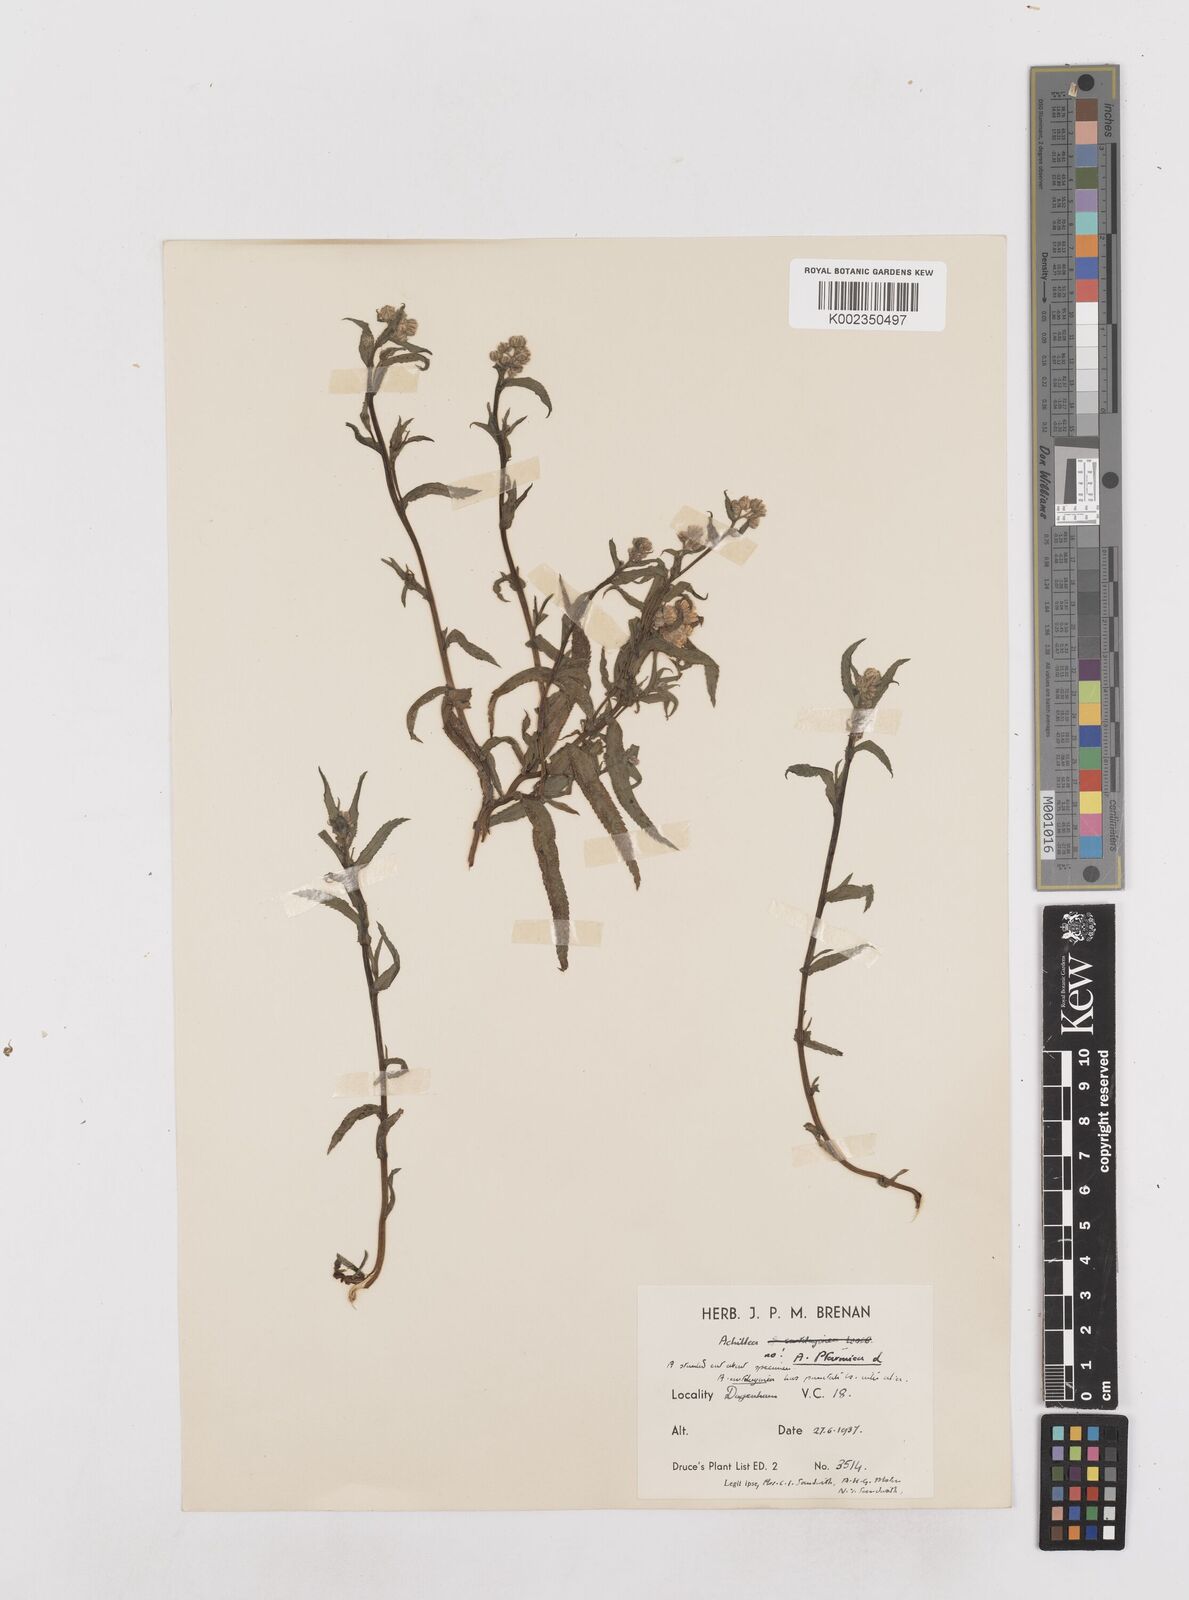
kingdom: Plantae
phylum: Tracheophyta
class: Magnoliopsida
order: Asterales
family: Asteraceae
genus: Achillea
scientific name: Achillea ptarmica
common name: Sneezeweed
